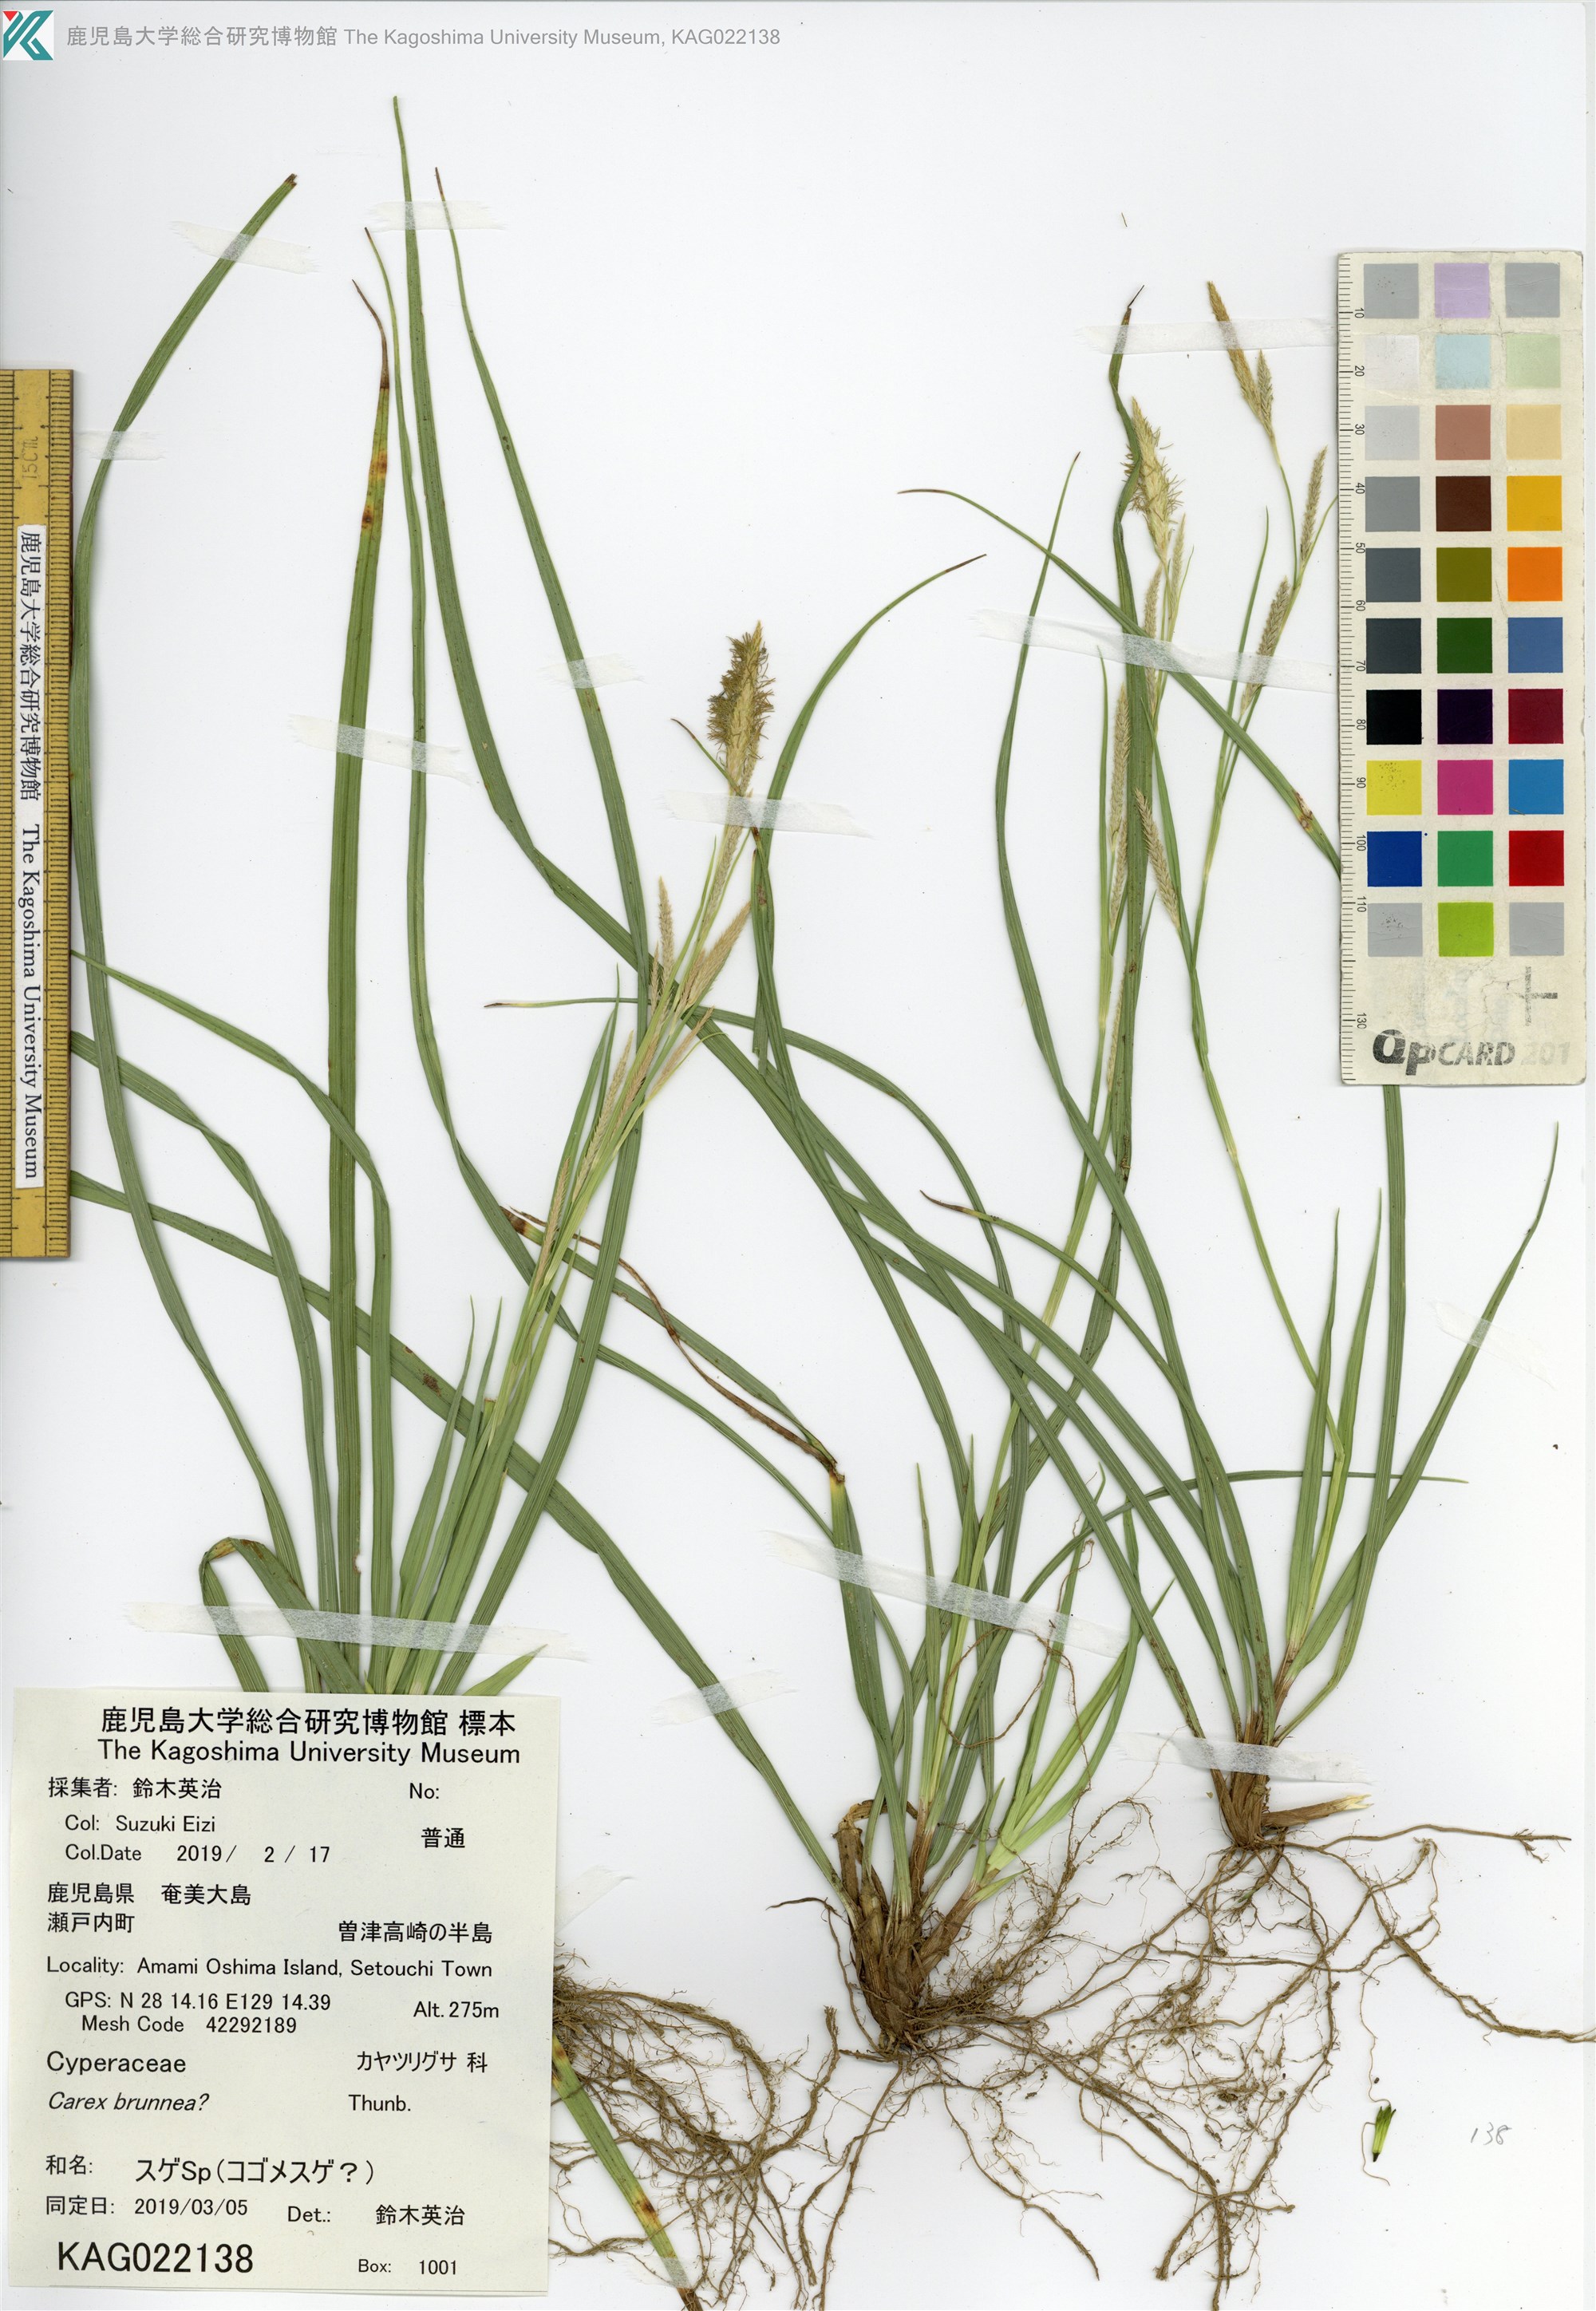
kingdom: Plantae
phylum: Tracheophyta
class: Liliopsida
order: Poales
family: Cyperaceae
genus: Carex
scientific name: Carex
